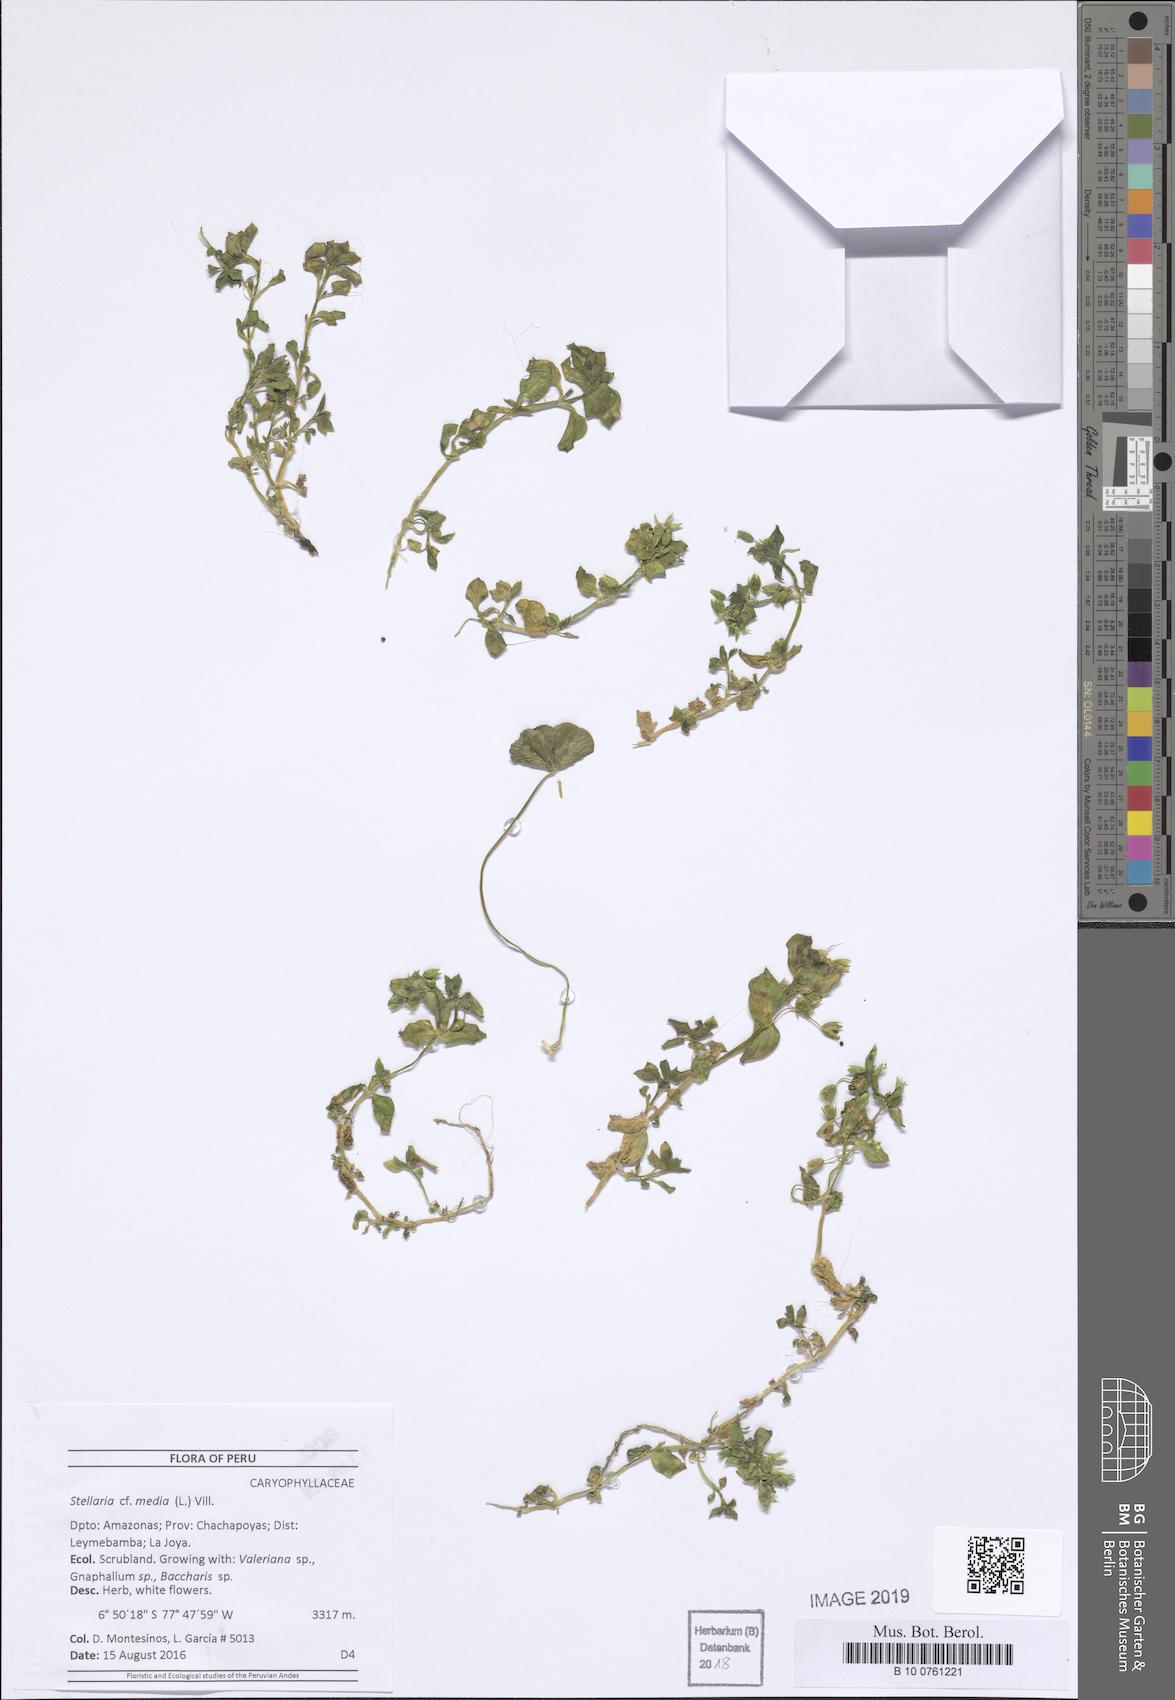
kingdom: Plantae
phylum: Tracheophyta
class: Magnoliopsida
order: Caryophyllales
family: Caryophyllaceae
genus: Stellaria
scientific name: Stellaria media
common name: Common chickweed
